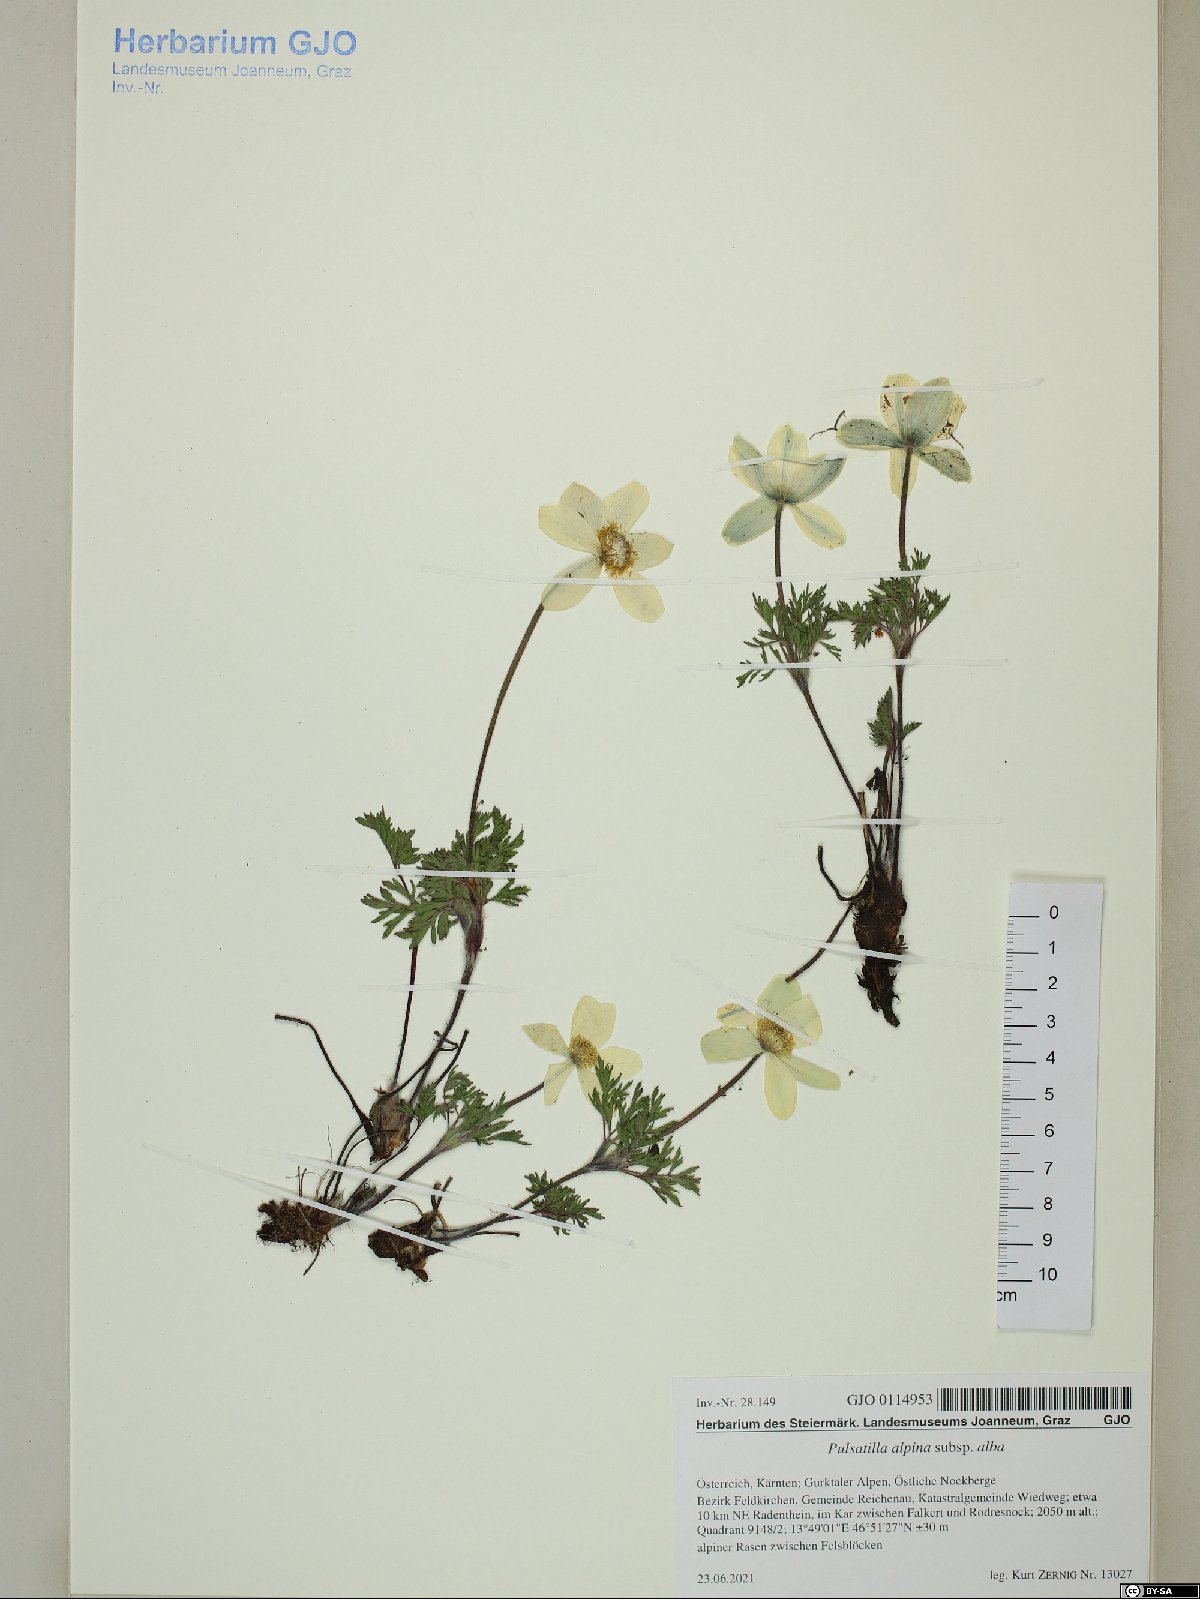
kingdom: Plantae
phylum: Tracheophyta
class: Magnoliopsida
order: Ranunculales
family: Ranunculaceae
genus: Pulsatilla
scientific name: Pulsatilla alpina
